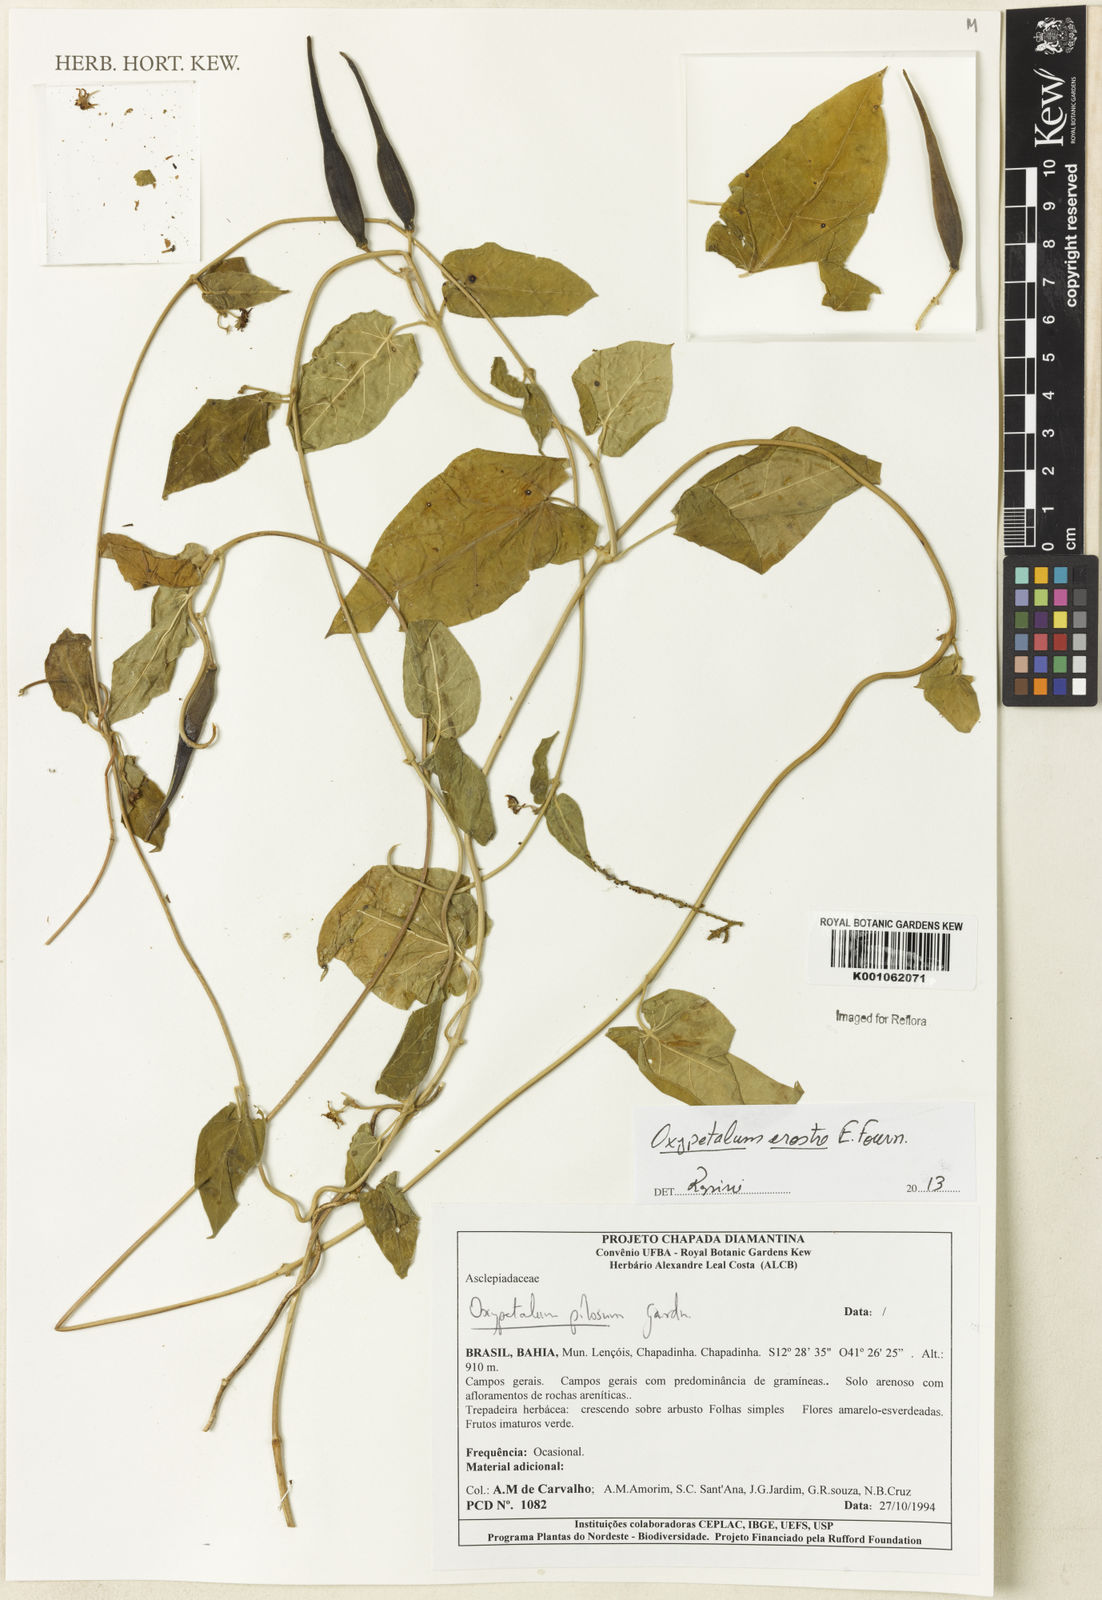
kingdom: Plantae
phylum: Tracheophyta
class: Magnoliopsida
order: Gentianales
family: Apocynaceae
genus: Oxypetalum
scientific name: Oxypetalum erostre
